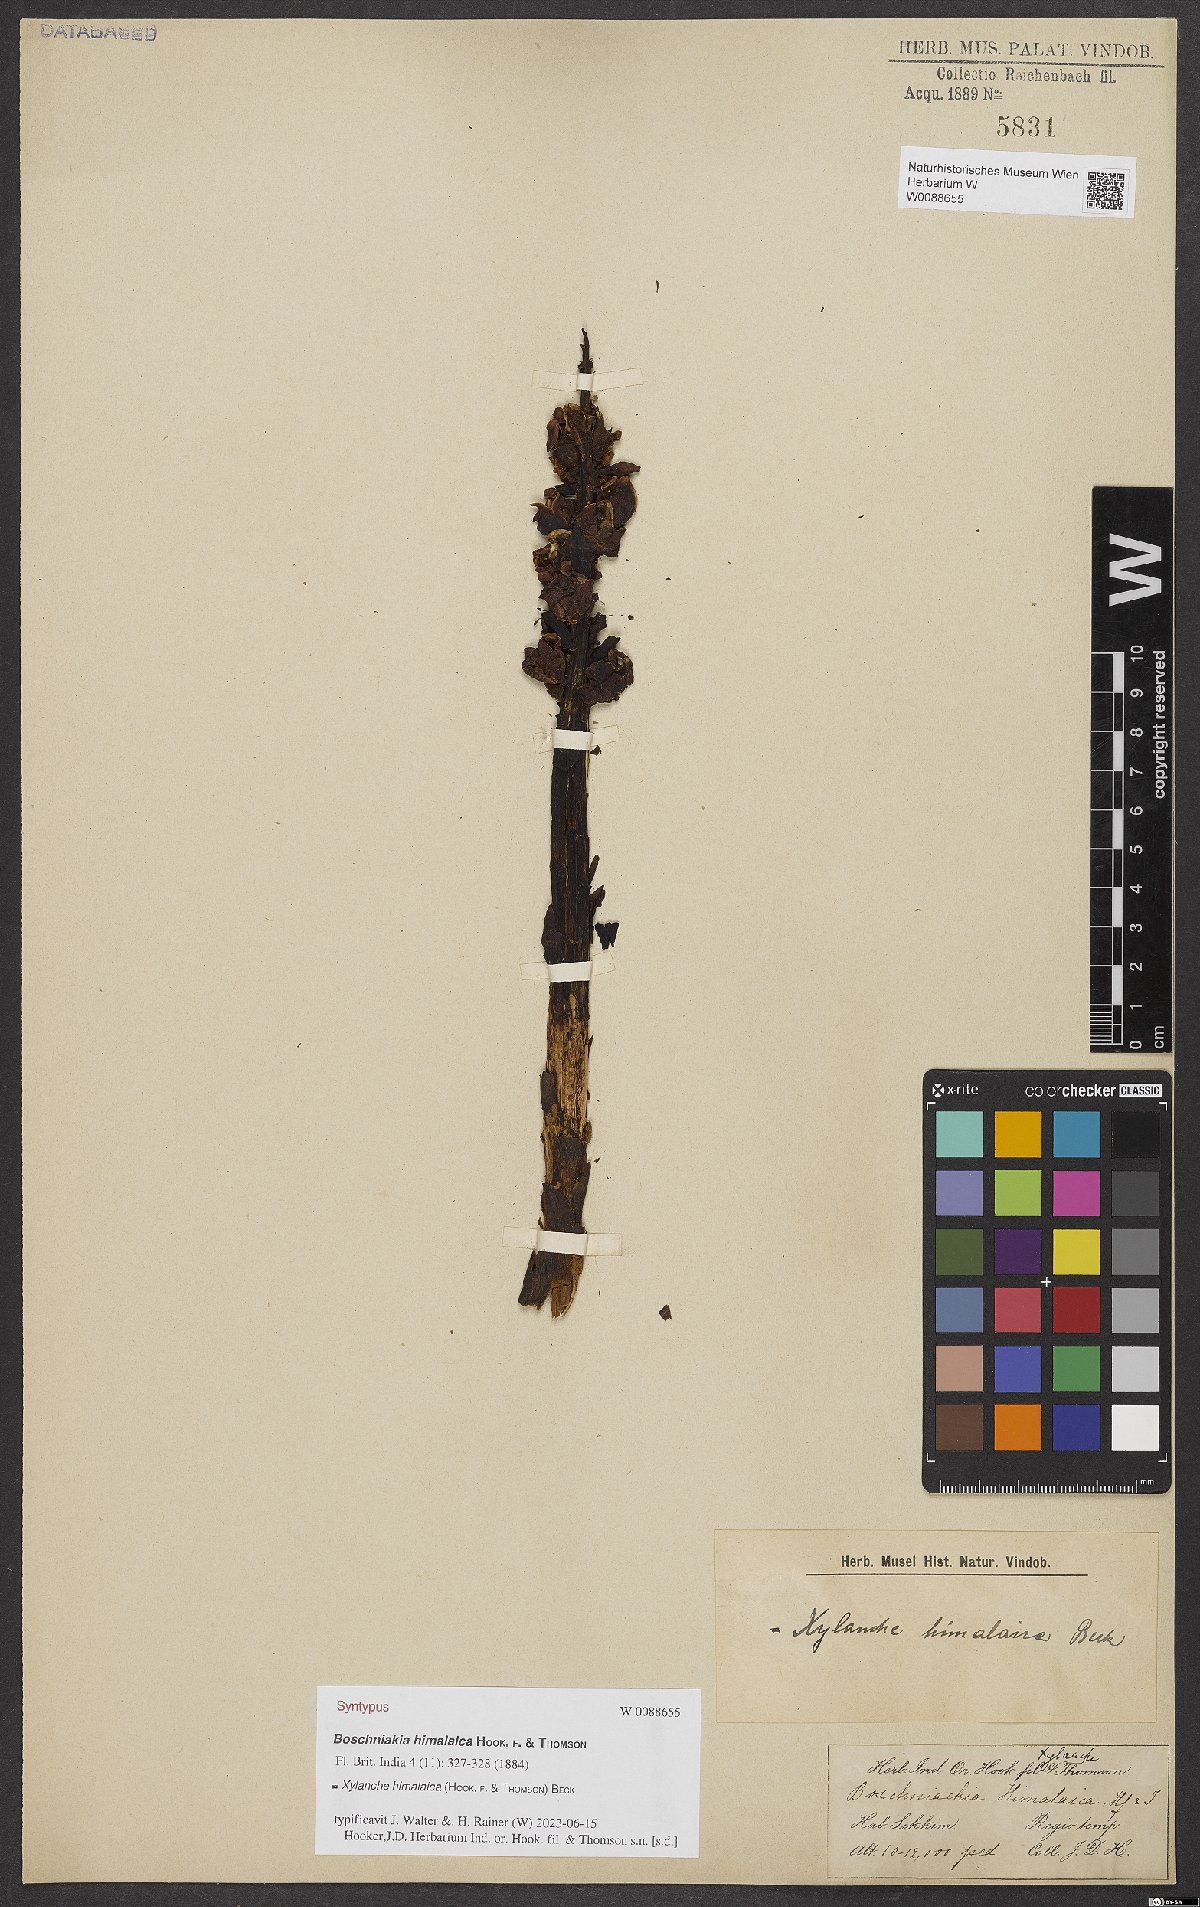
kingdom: Plantae
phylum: Tracheophyta
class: Magnoliopsida
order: Lamiales
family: Orobanchaceae
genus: Boschniakia
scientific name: Boschniakia himalaica
